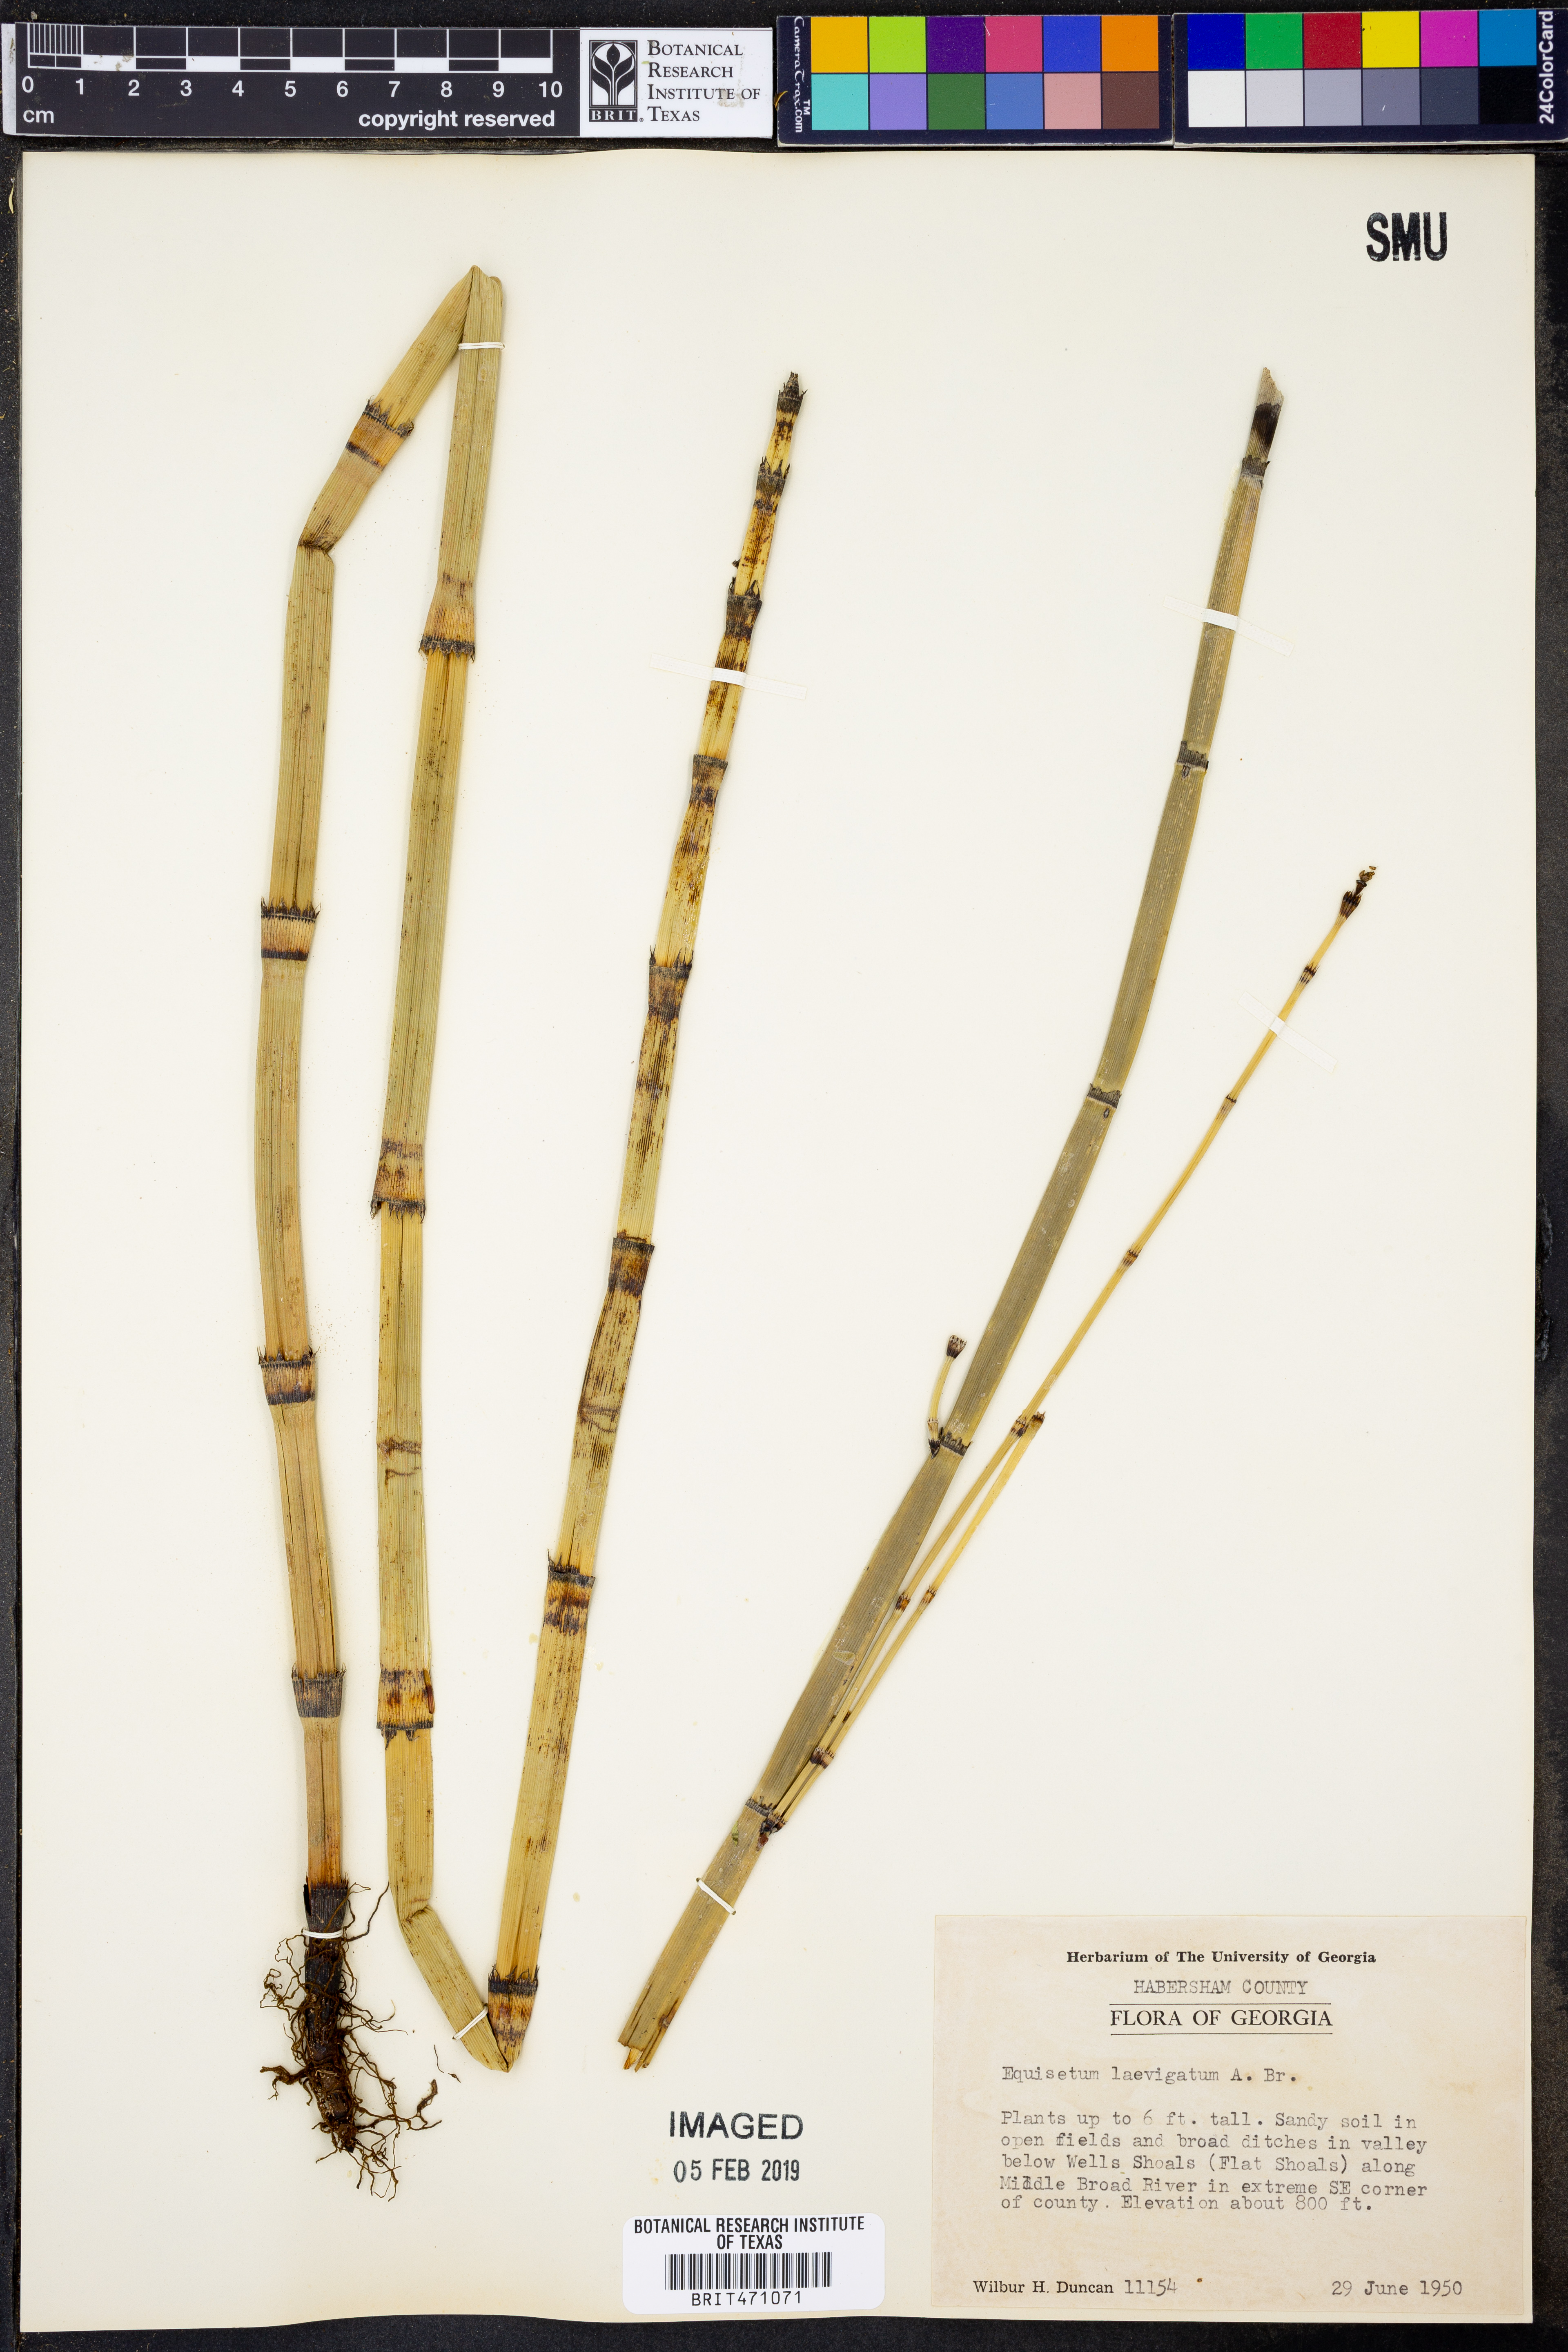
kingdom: Plantae
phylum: Tracheophyta
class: Polypodiopsida
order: Equisetales
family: Equisetaceae
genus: Equisetum
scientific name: Equisetum laevigatum
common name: Smooth scouring-rush
